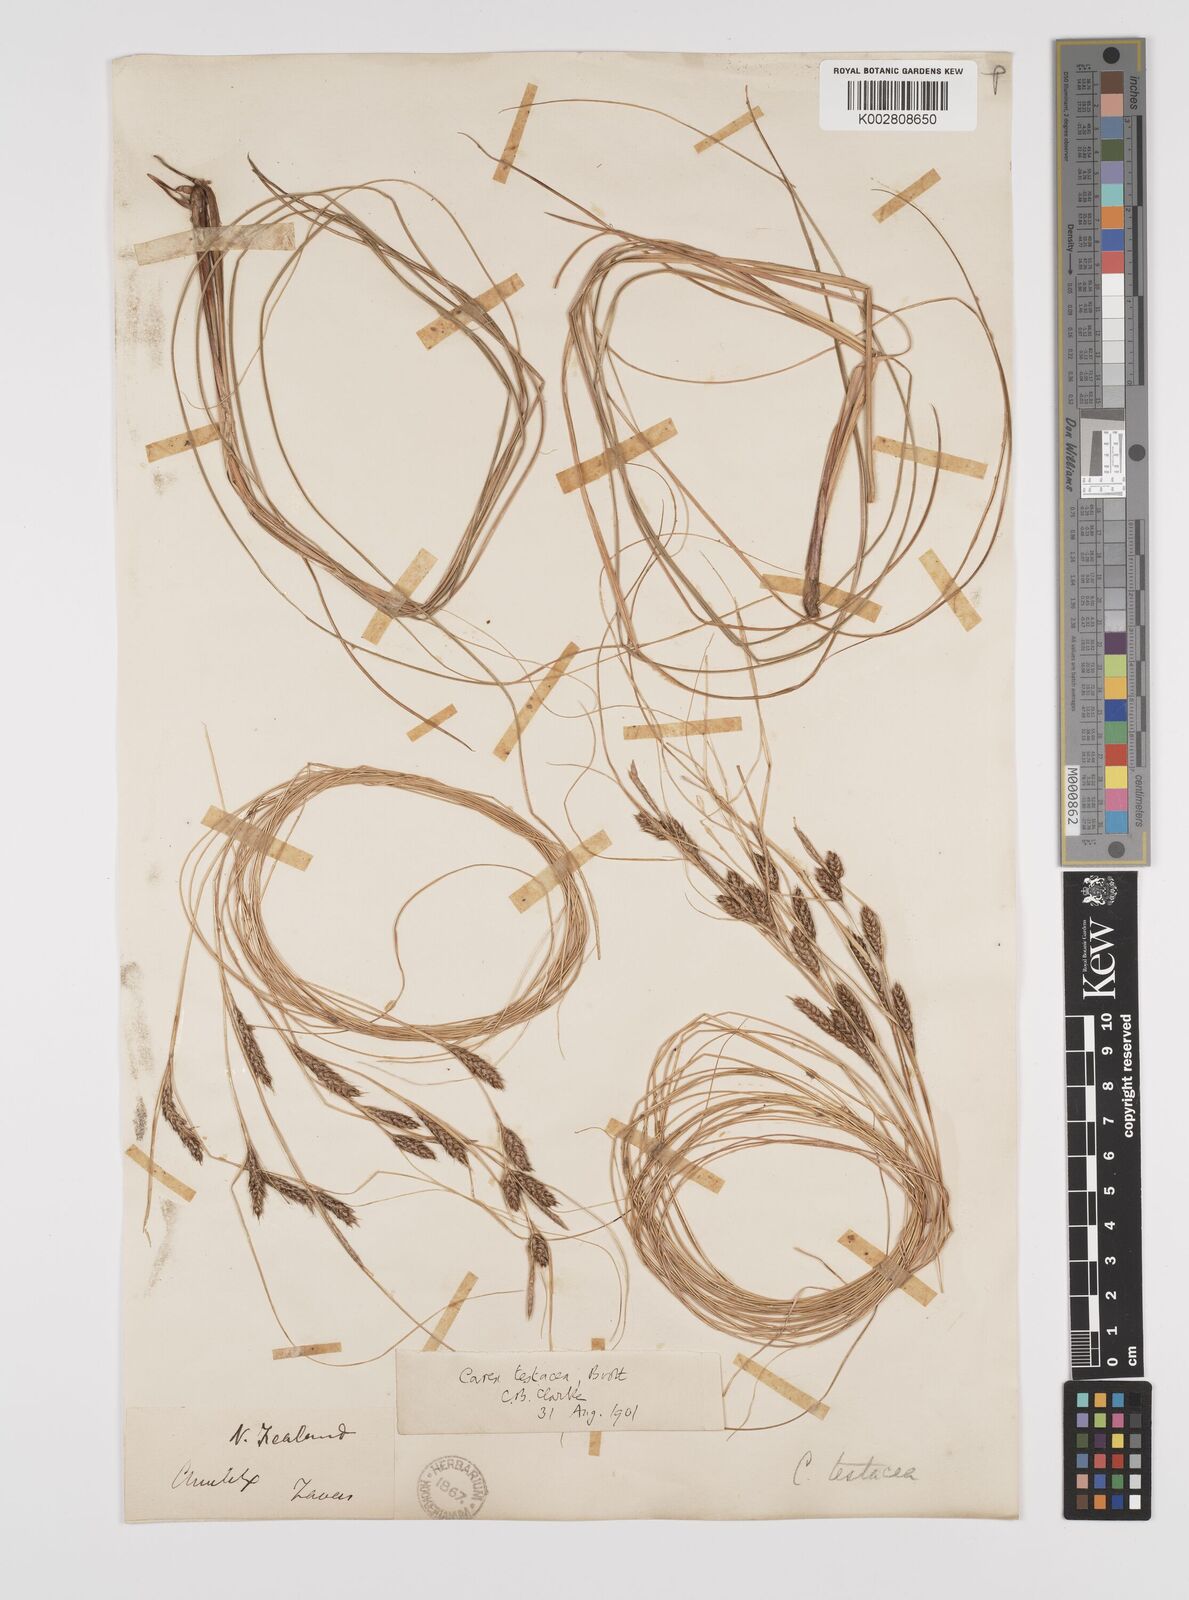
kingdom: Plantae
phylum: Tracheophyta
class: Liliopsida
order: Poales
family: Cyperaceae
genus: Carex
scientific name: Carex testacea
